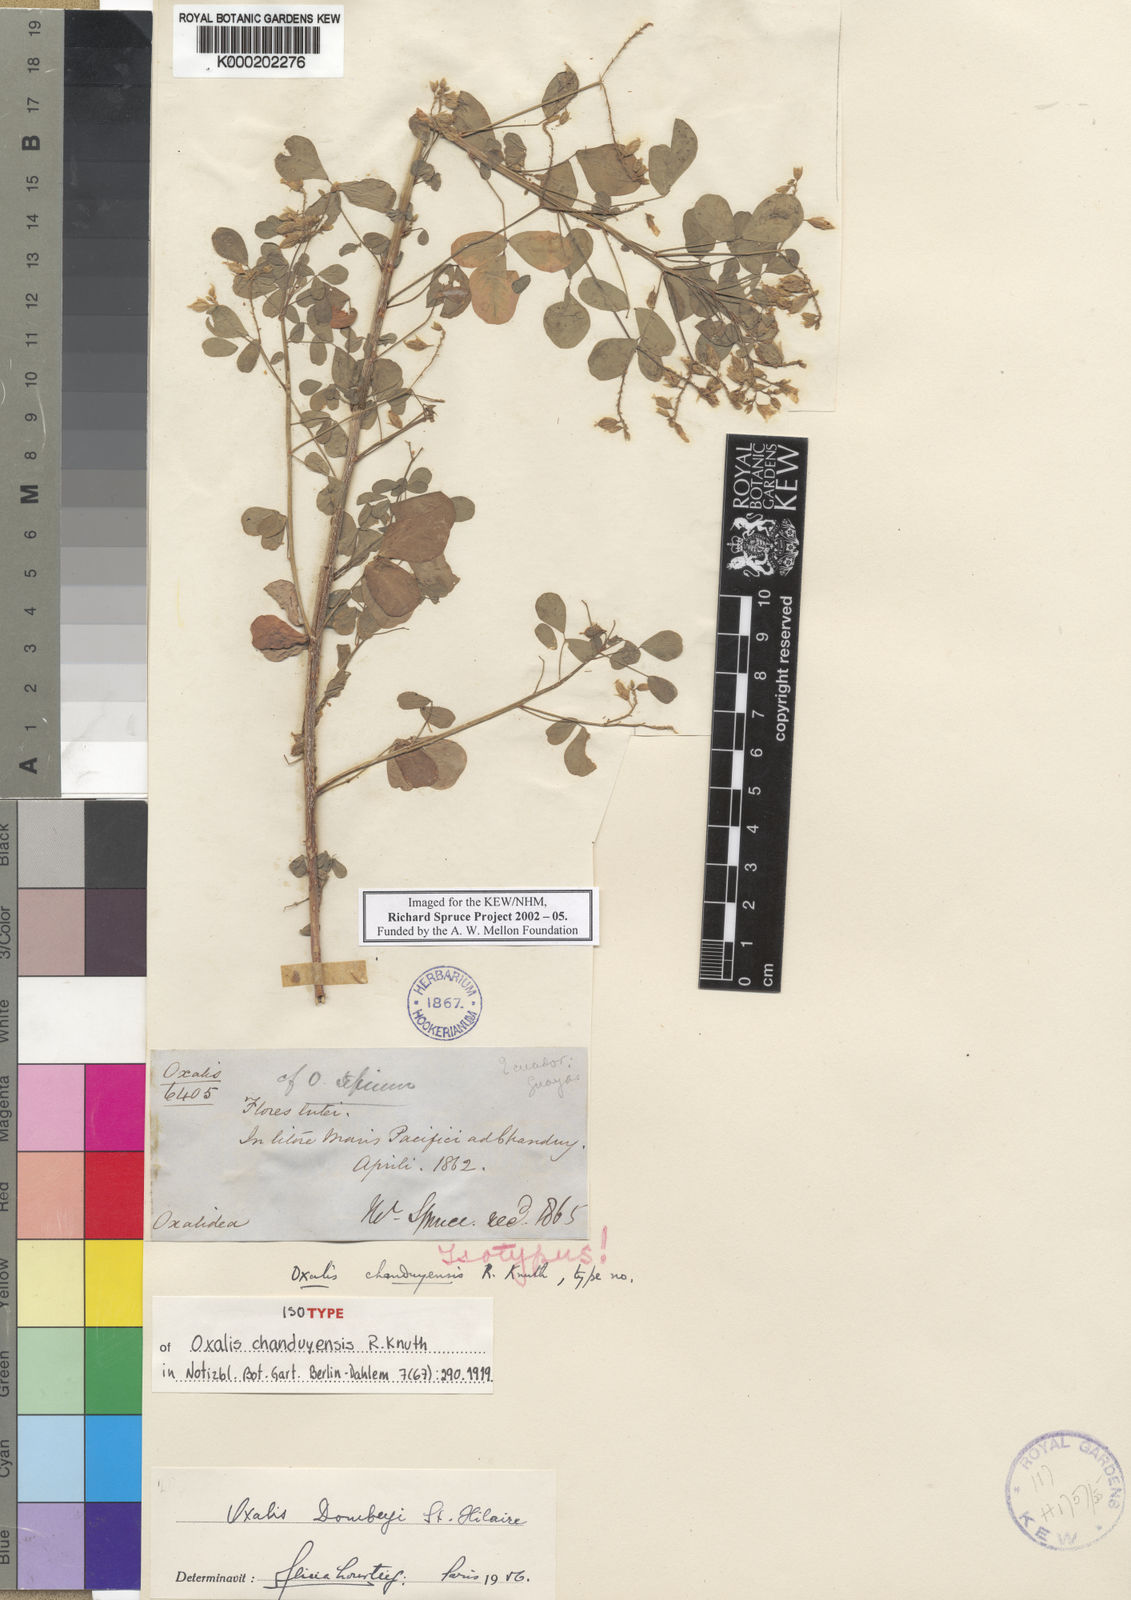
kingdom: Plantae
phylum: Tracheophyta
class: Magnoliopsida
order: Oxalidales
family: Oxalidaceae
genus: Oxalis
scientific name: Oxalis dombeyi
